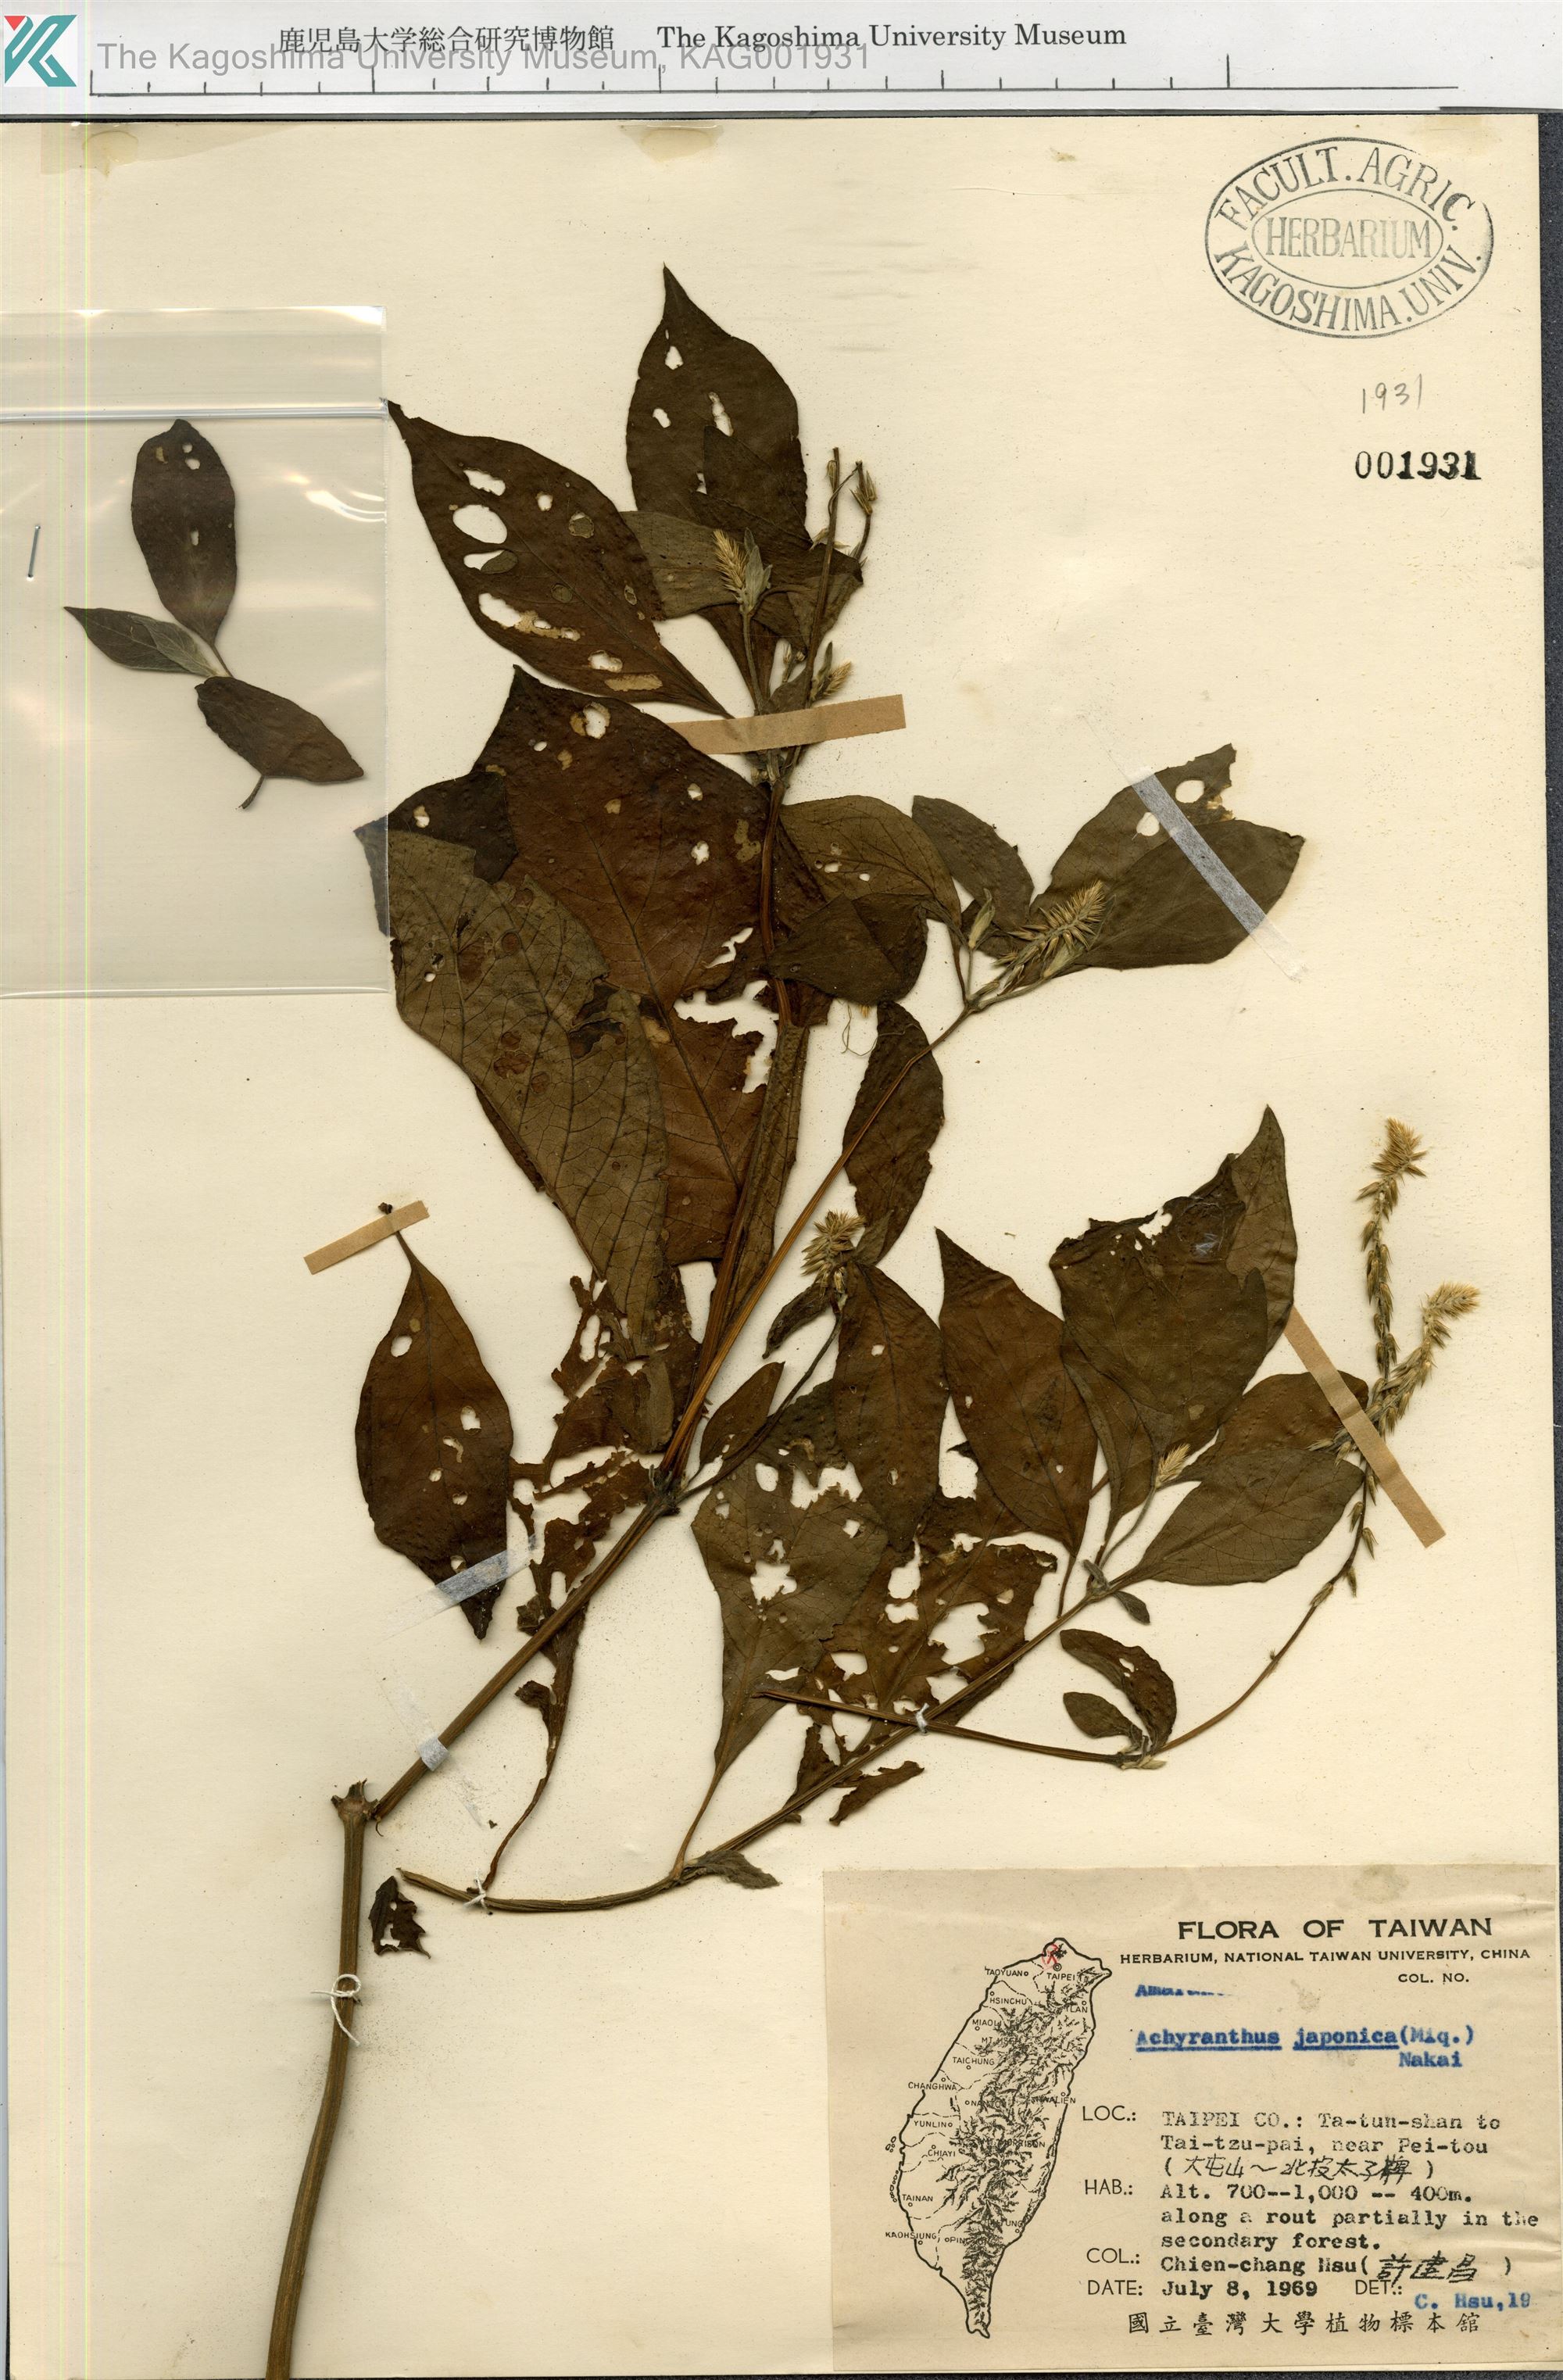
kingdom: Plantae
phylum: Tracheophyta
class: Magnoliopsida
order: Caryophyllales
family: Amaranthaceae
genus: Achyranthes
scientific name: Achyranthes bidentata
